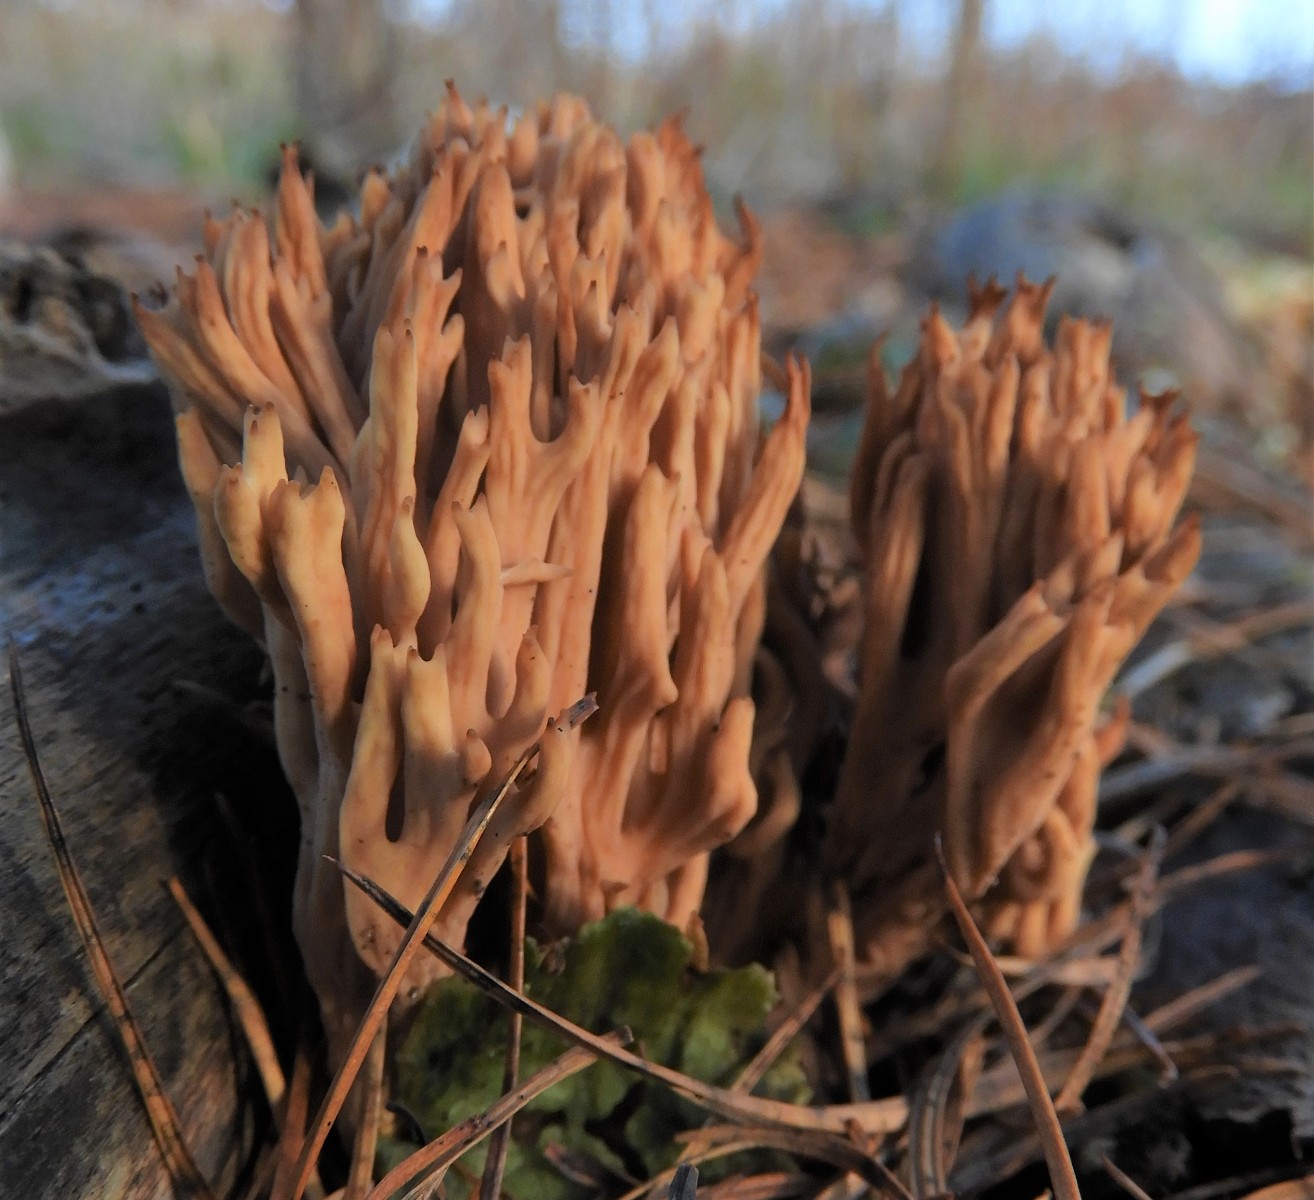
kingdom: Fungi
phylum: Basidiomycota
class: Agaricomycetes
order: Gomphales
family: Gomphaceae
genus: Ramaria
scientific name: Ramaria stricta
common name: rank koralsvamp
